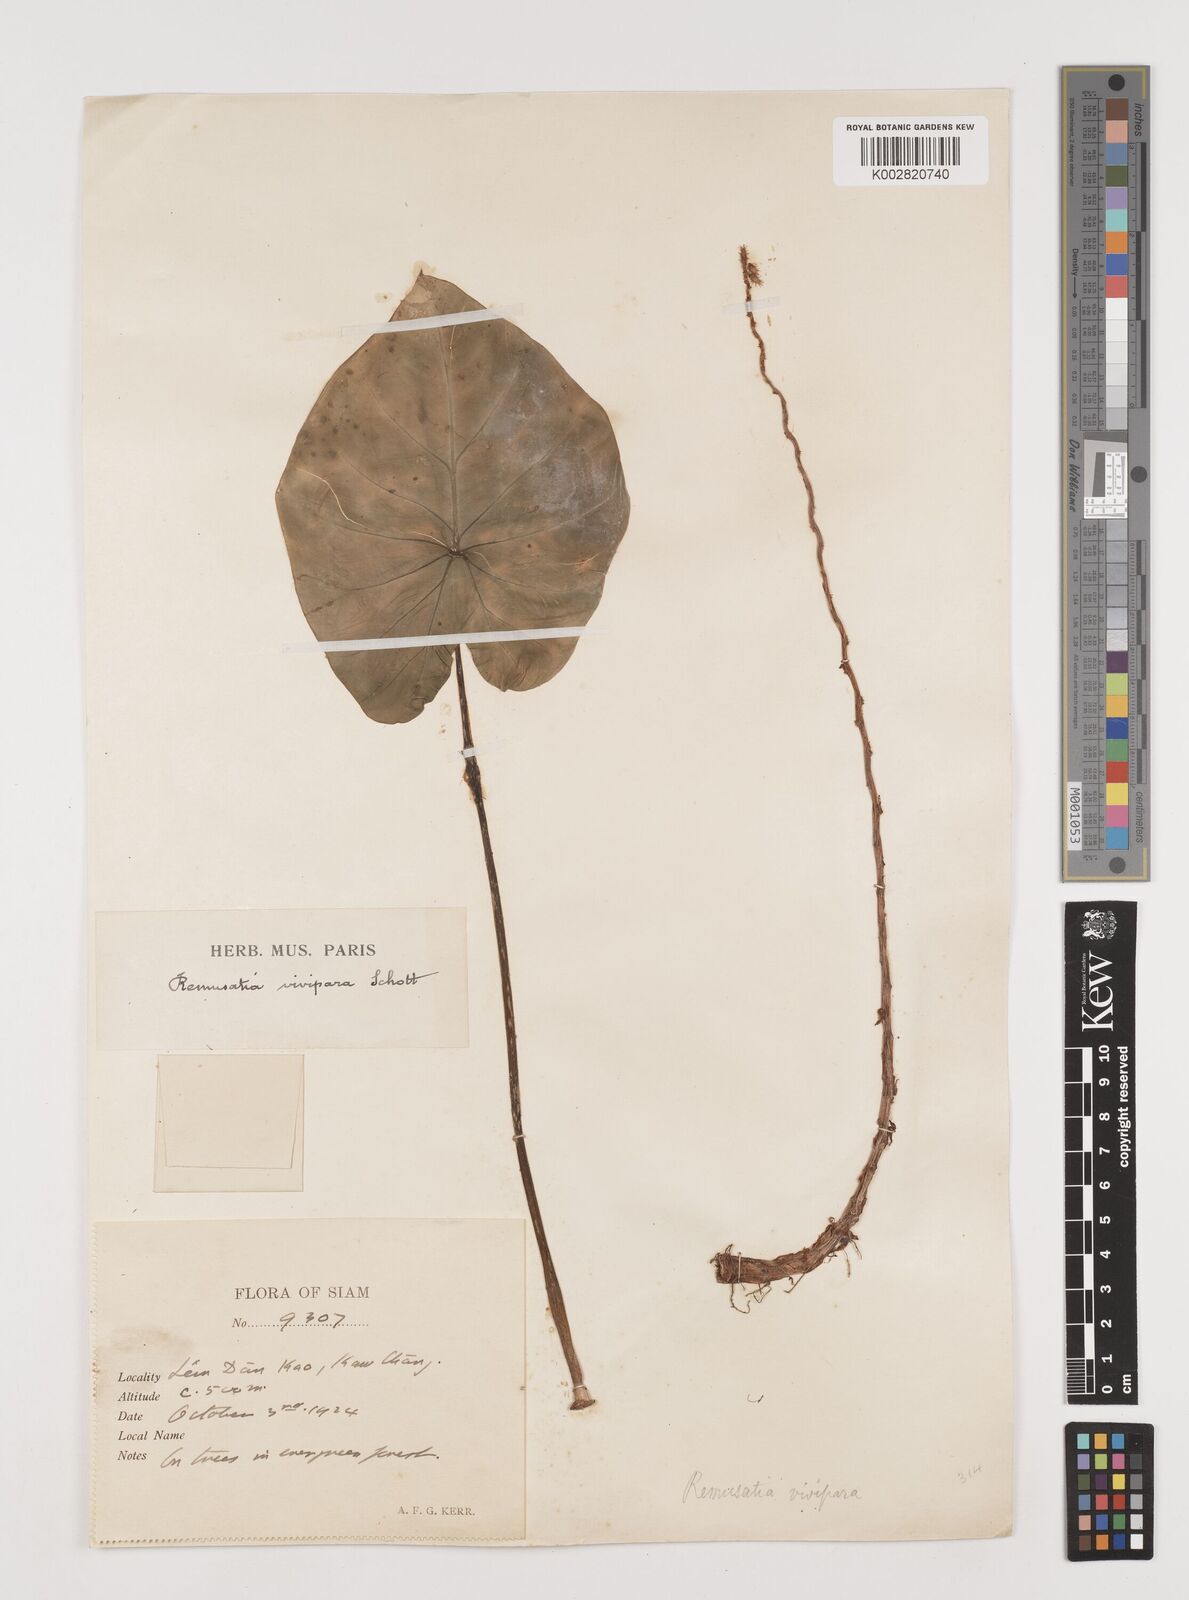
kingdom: Plantae
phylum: Tracheophyta
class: Liliopsida
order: Alismatales
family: Araceae
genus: Remusatia
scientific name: Remusatia vivipara
